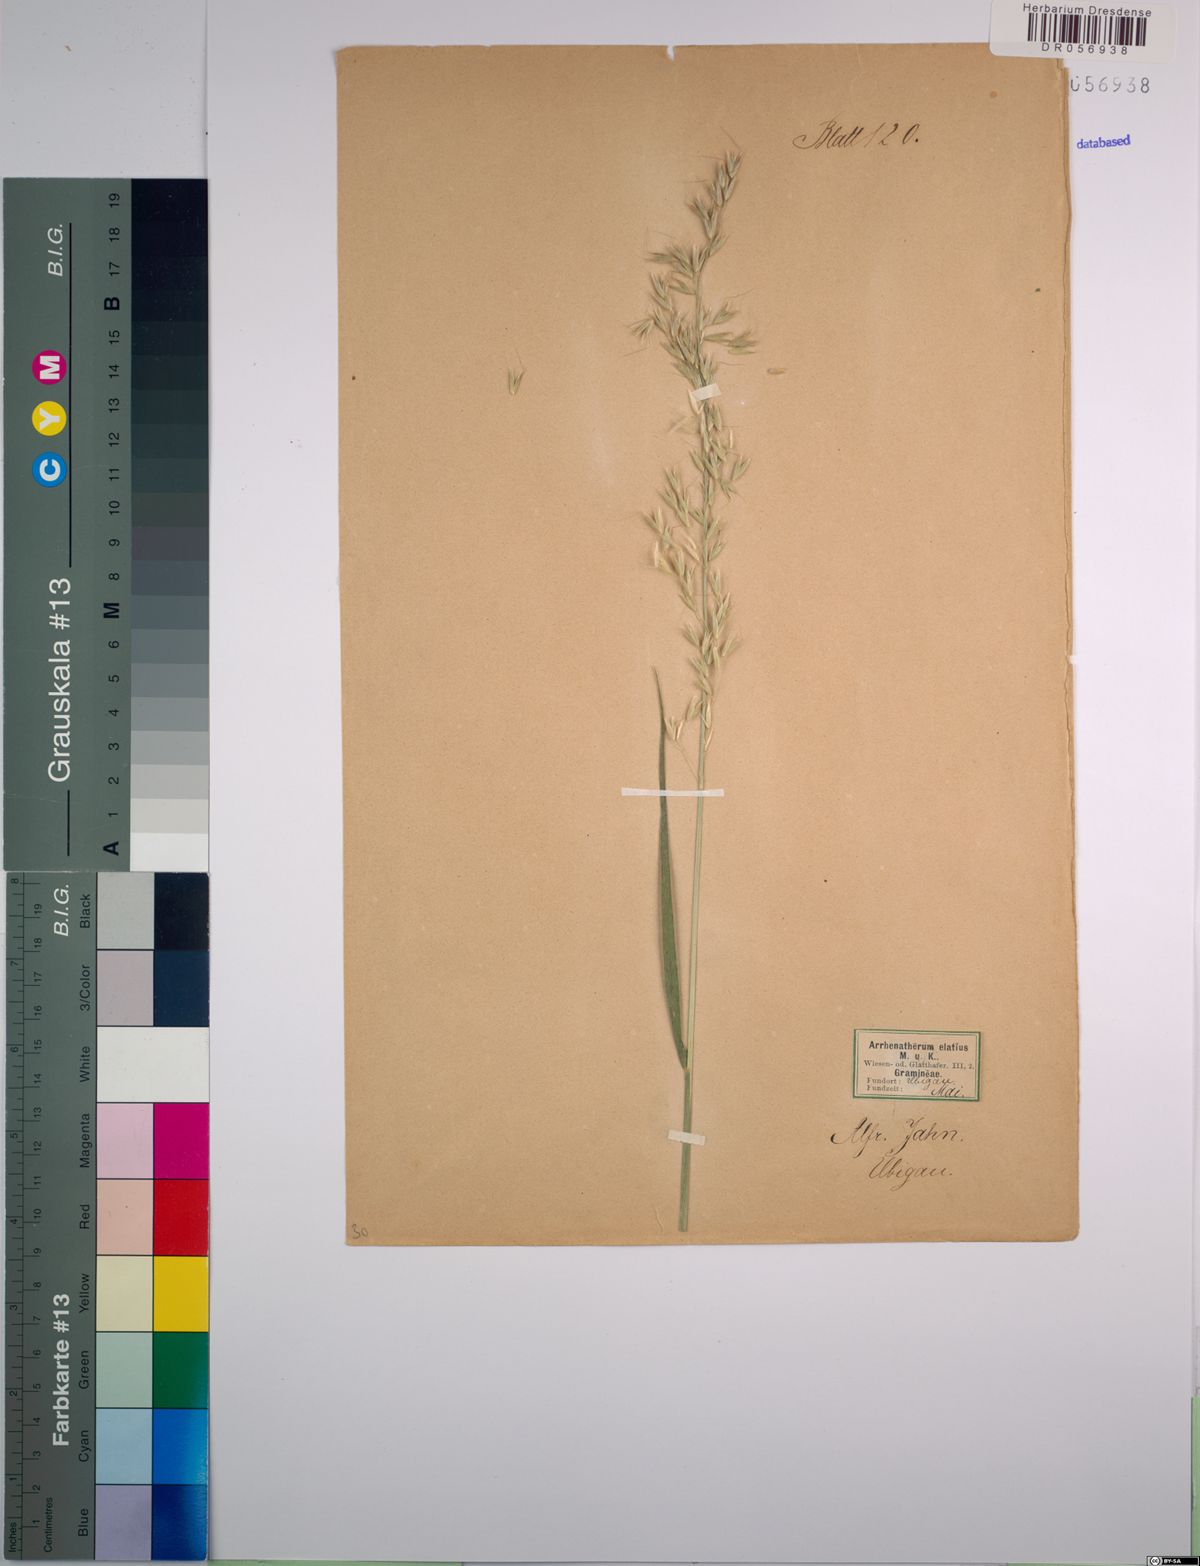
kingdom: Plantae
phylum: Tracheophyta
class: Liliopsida
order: Poales
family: Poaceae
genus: Arrhenatherum
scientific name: Arrhenatherum elatius
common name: Tall oatgrass
